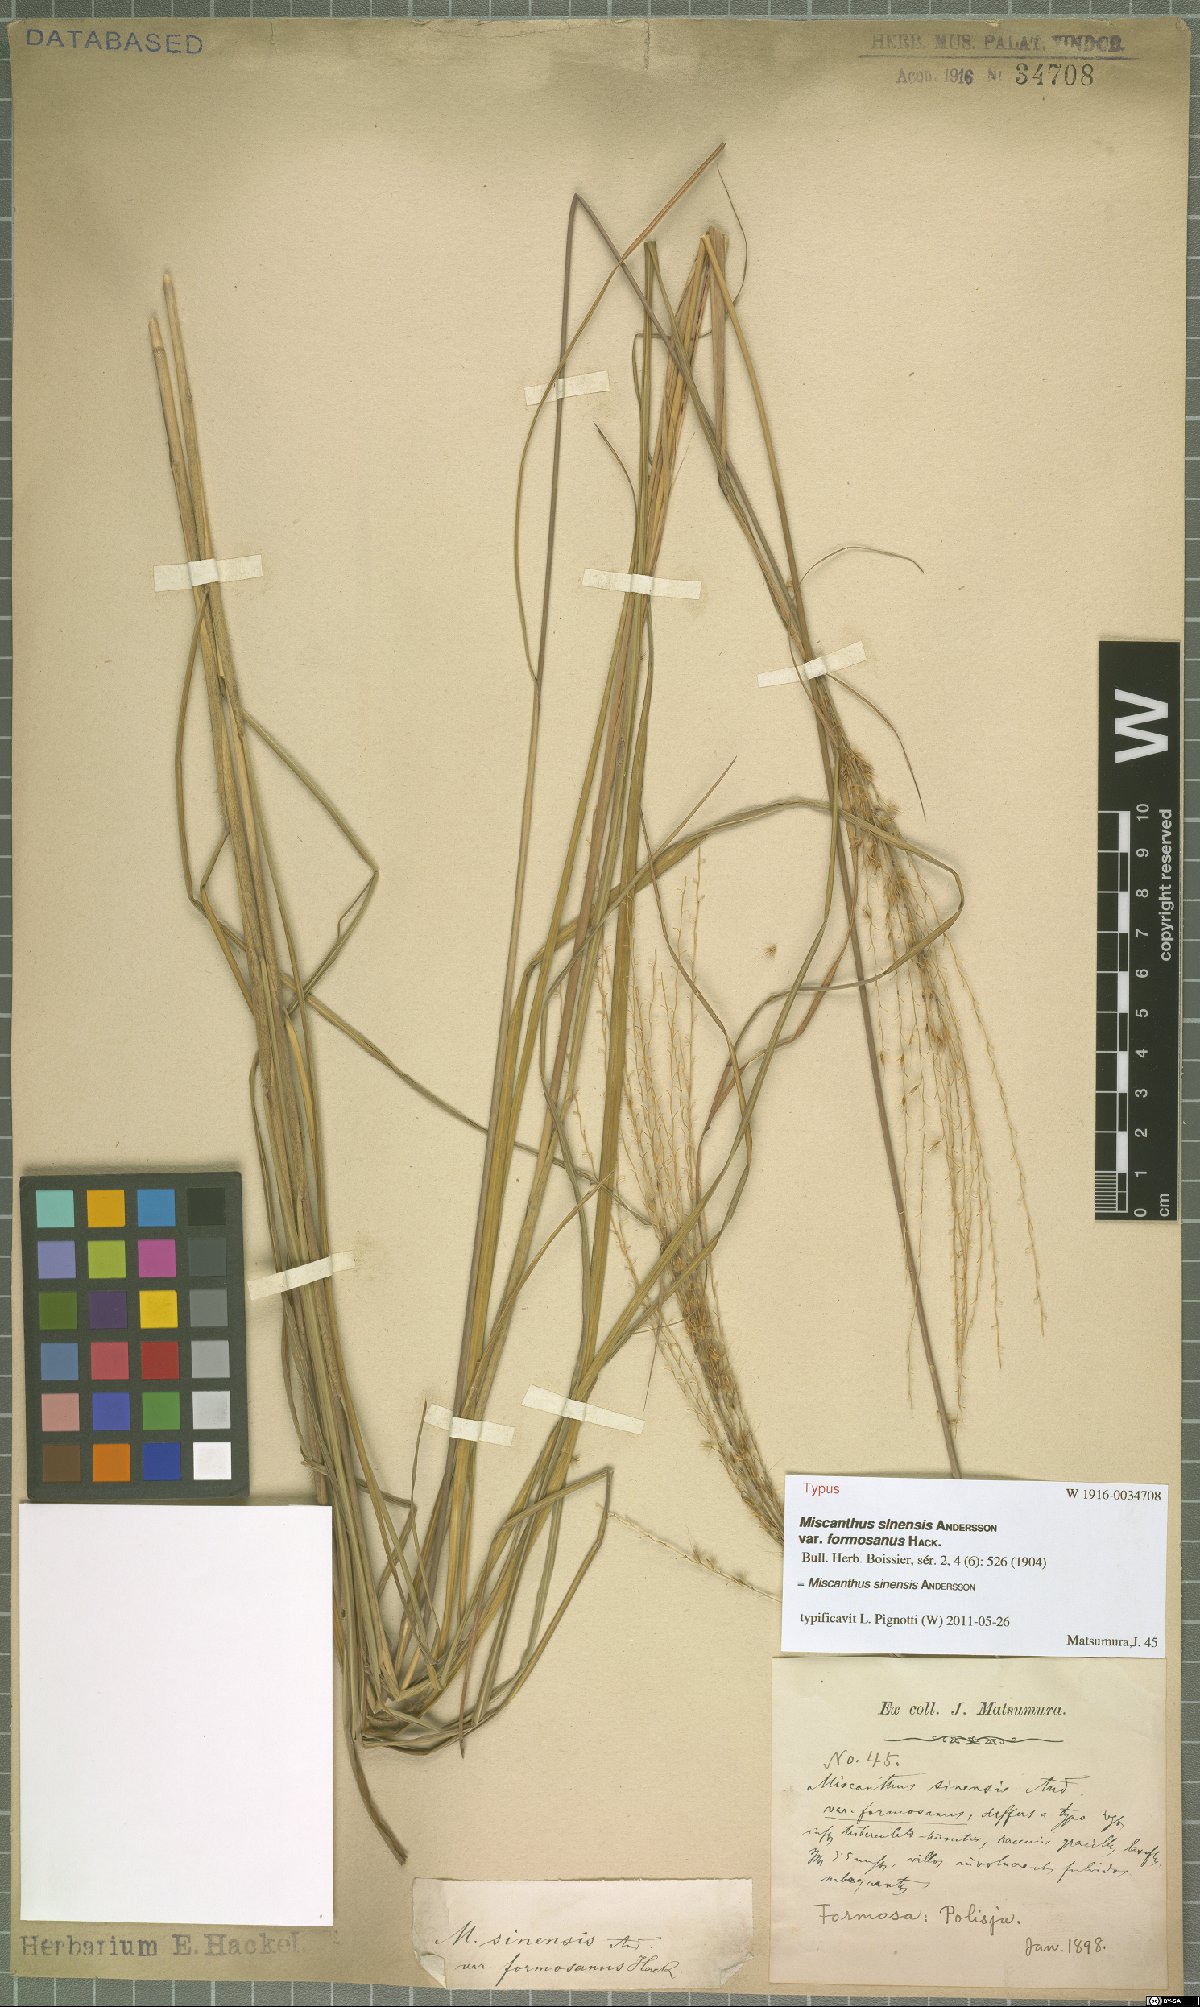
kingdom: Plantae
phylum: Tracheophyta
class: Liliopsida
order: Poales
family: Poaceae
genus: Miscanthus
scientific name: Miscanthus sinensis
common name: Chinese silvergrass
